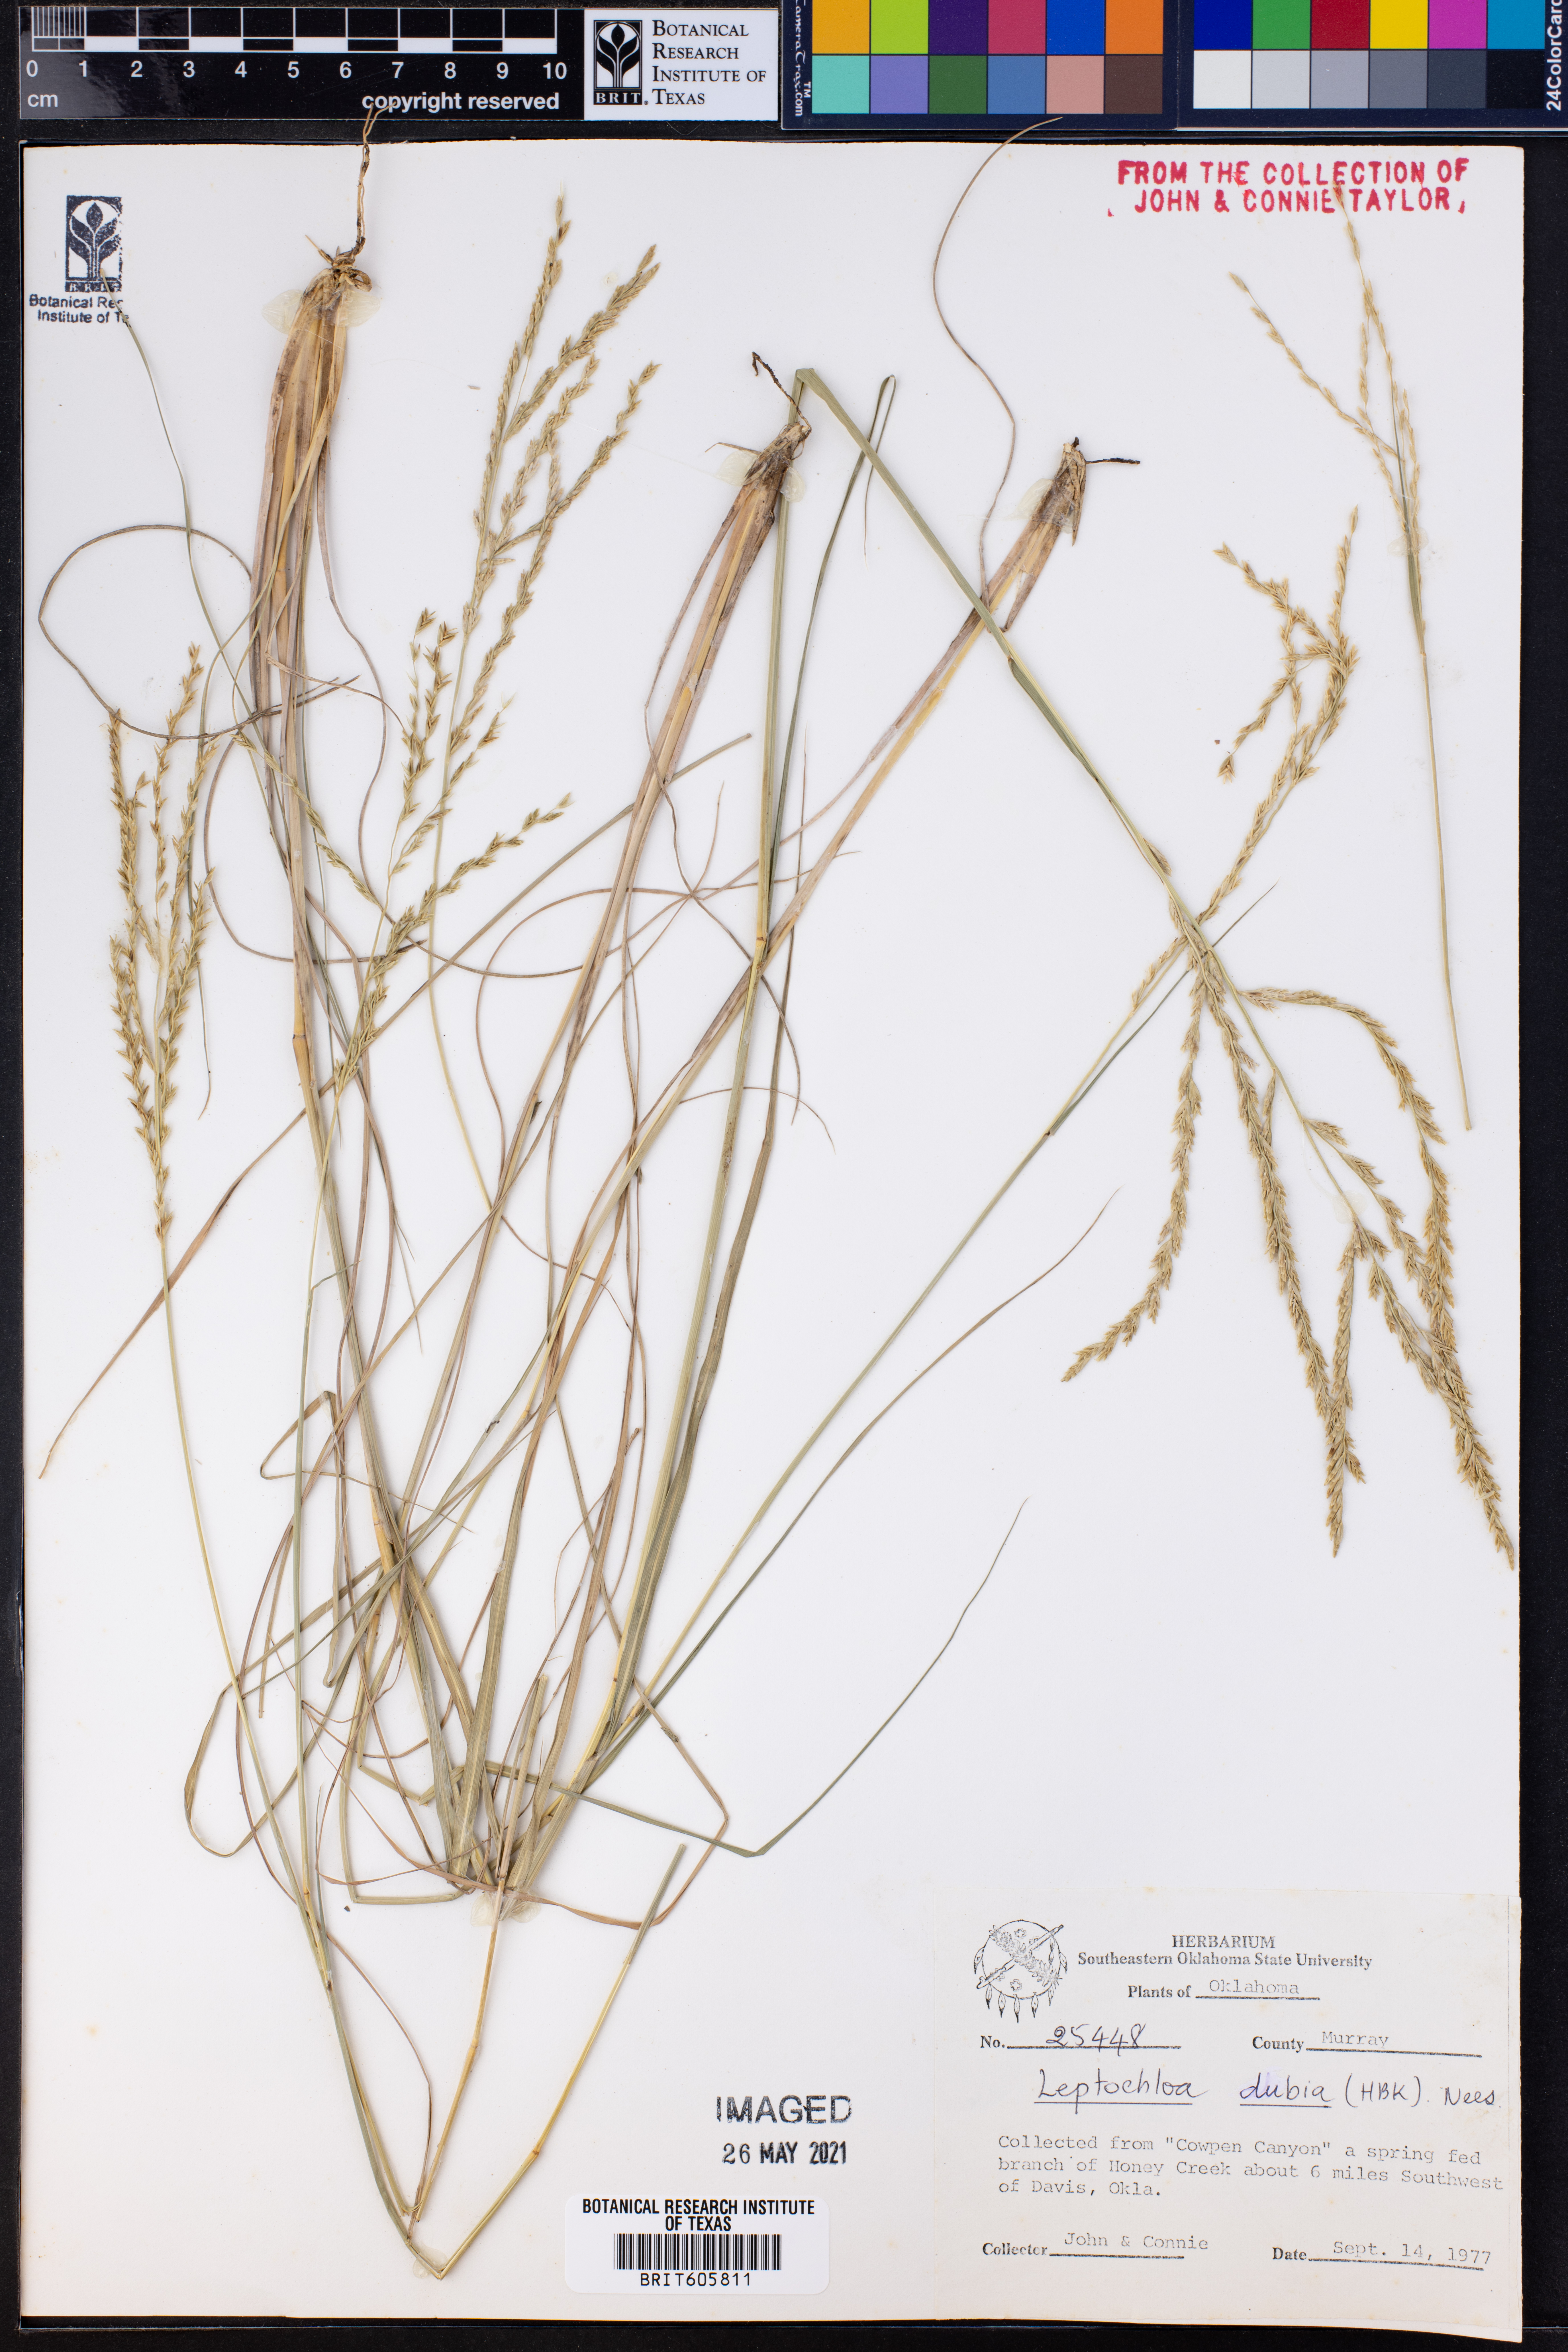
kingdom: Plantae
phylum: Tracheophyta
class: Liliopsida
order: Poales
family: Poaceae
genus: Disakisperma
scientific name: Disakisperma dubium
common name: Green sprangletop
